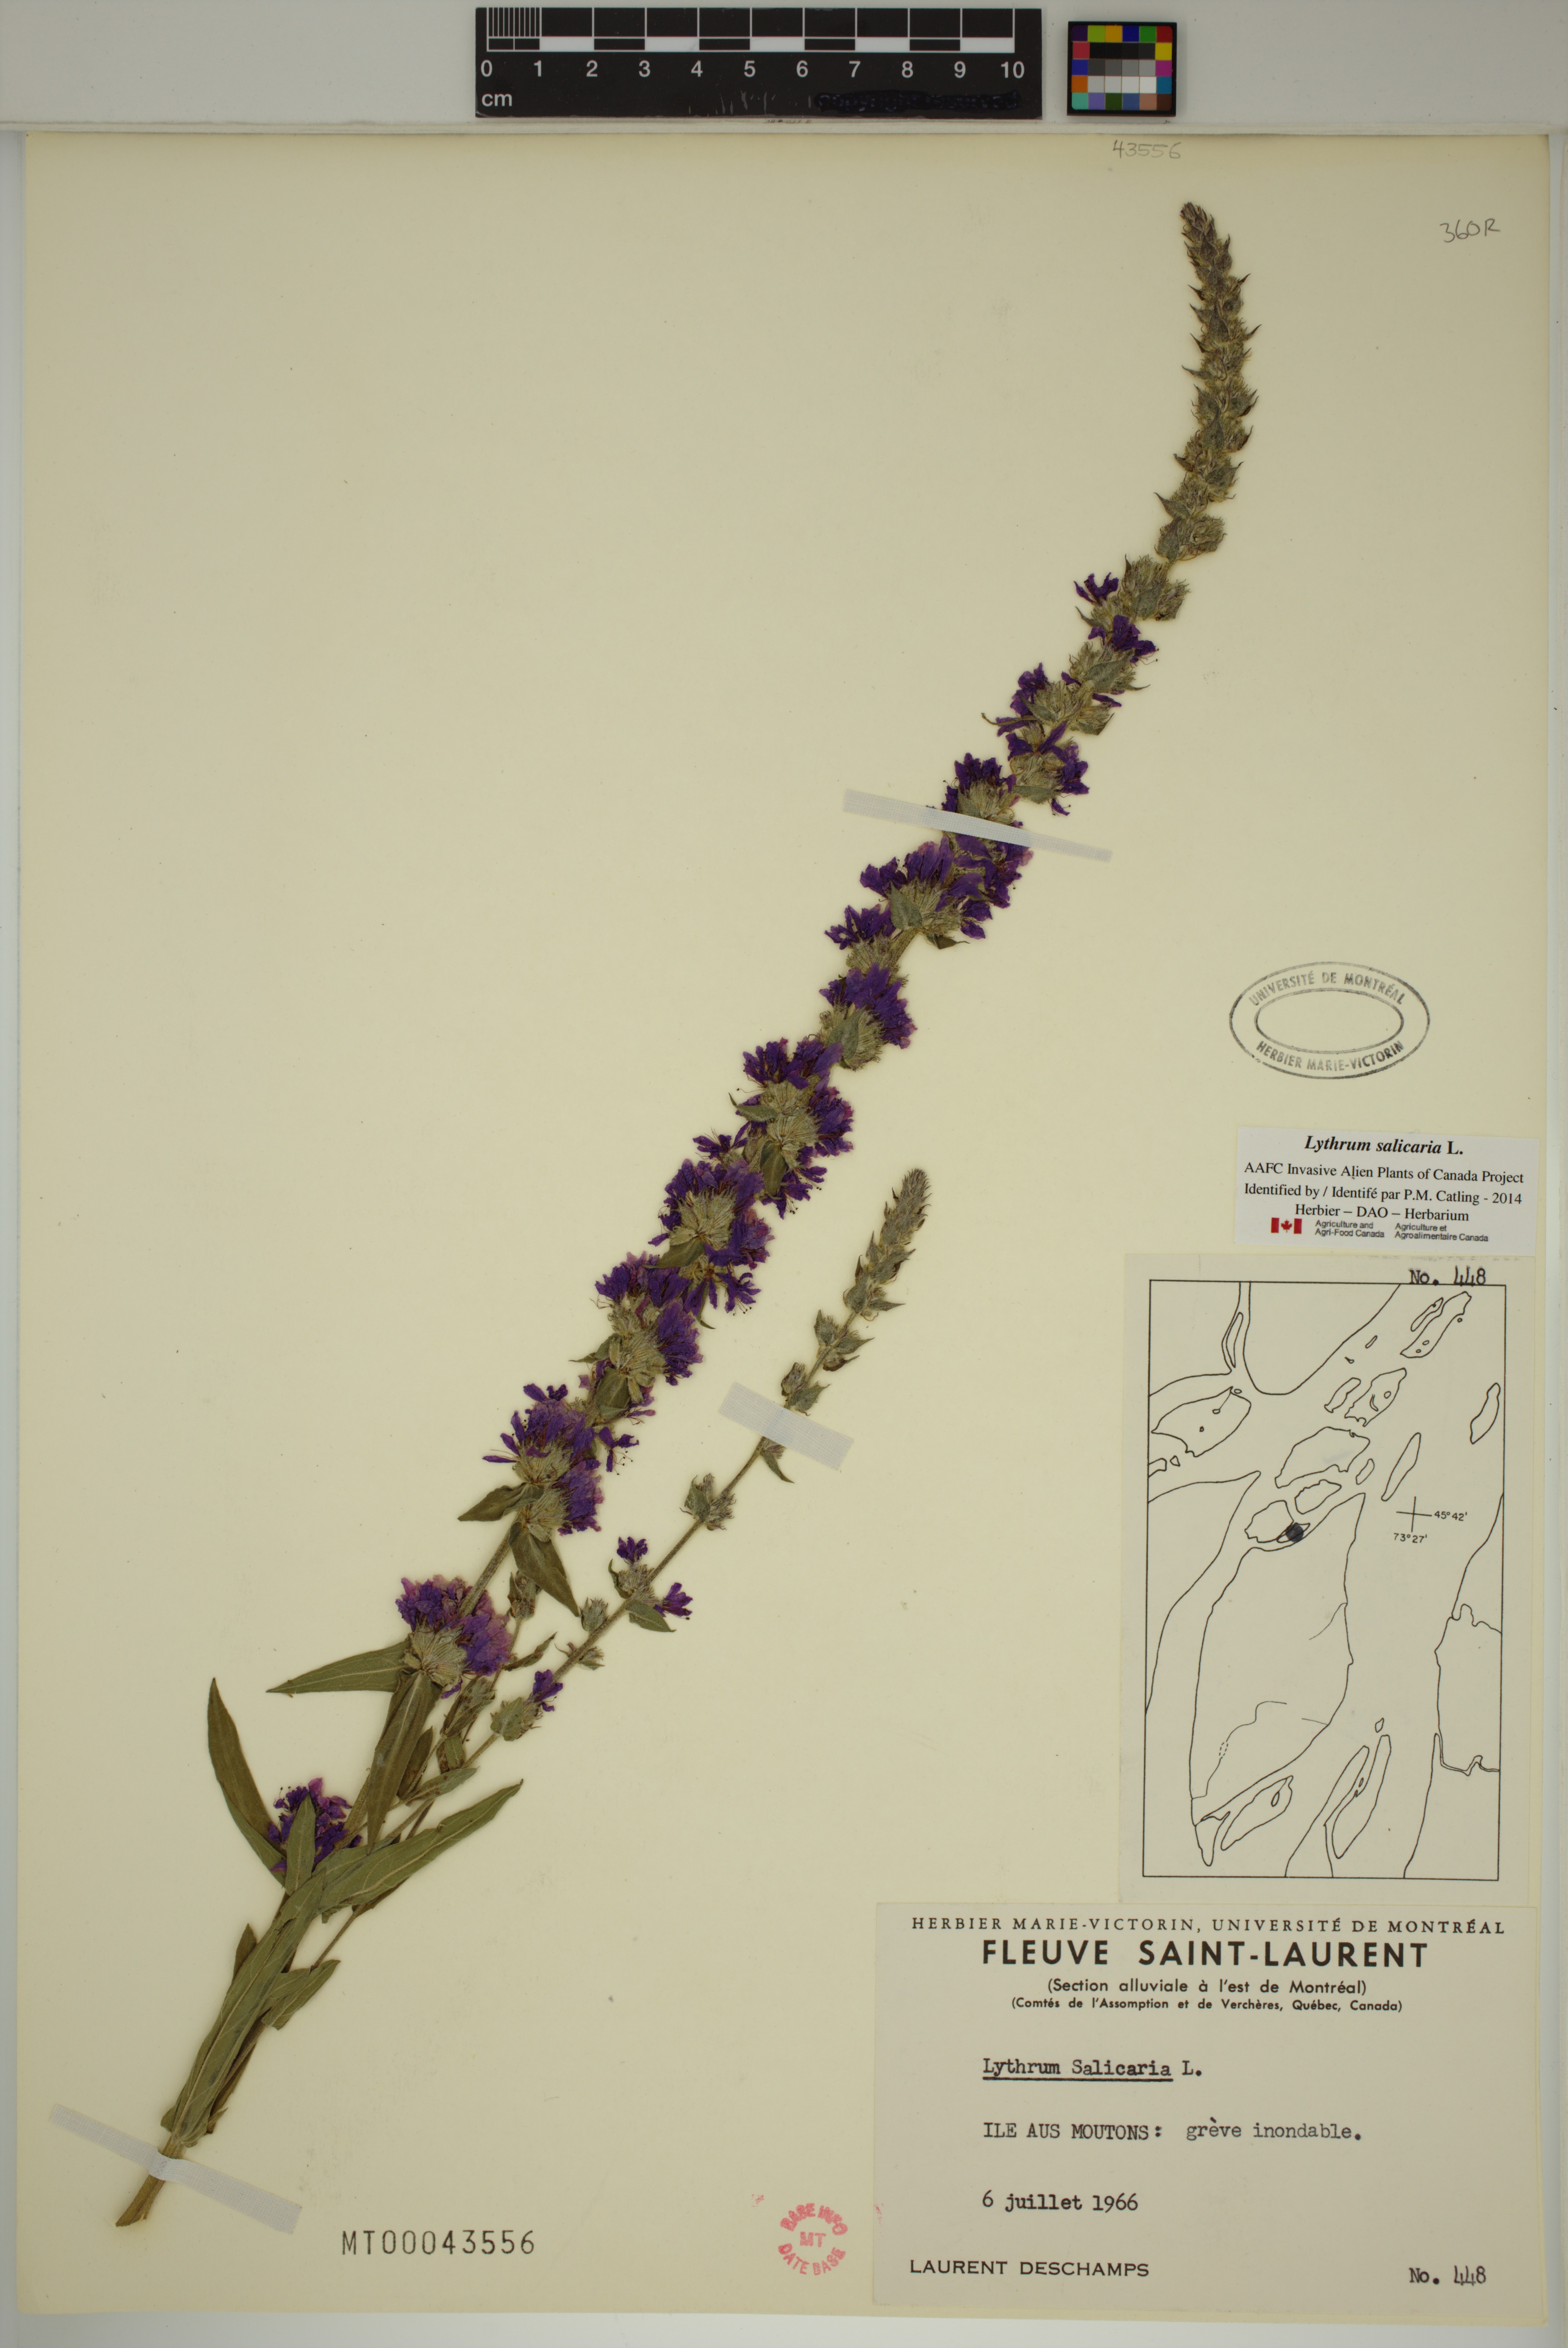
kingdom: Plantae
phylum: Tracheophyta
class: Magnoliopsida
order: Myrtales
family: Lythraceae
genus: Lythrum
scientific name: Lythrum salicaria
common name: Purple loosestrife
